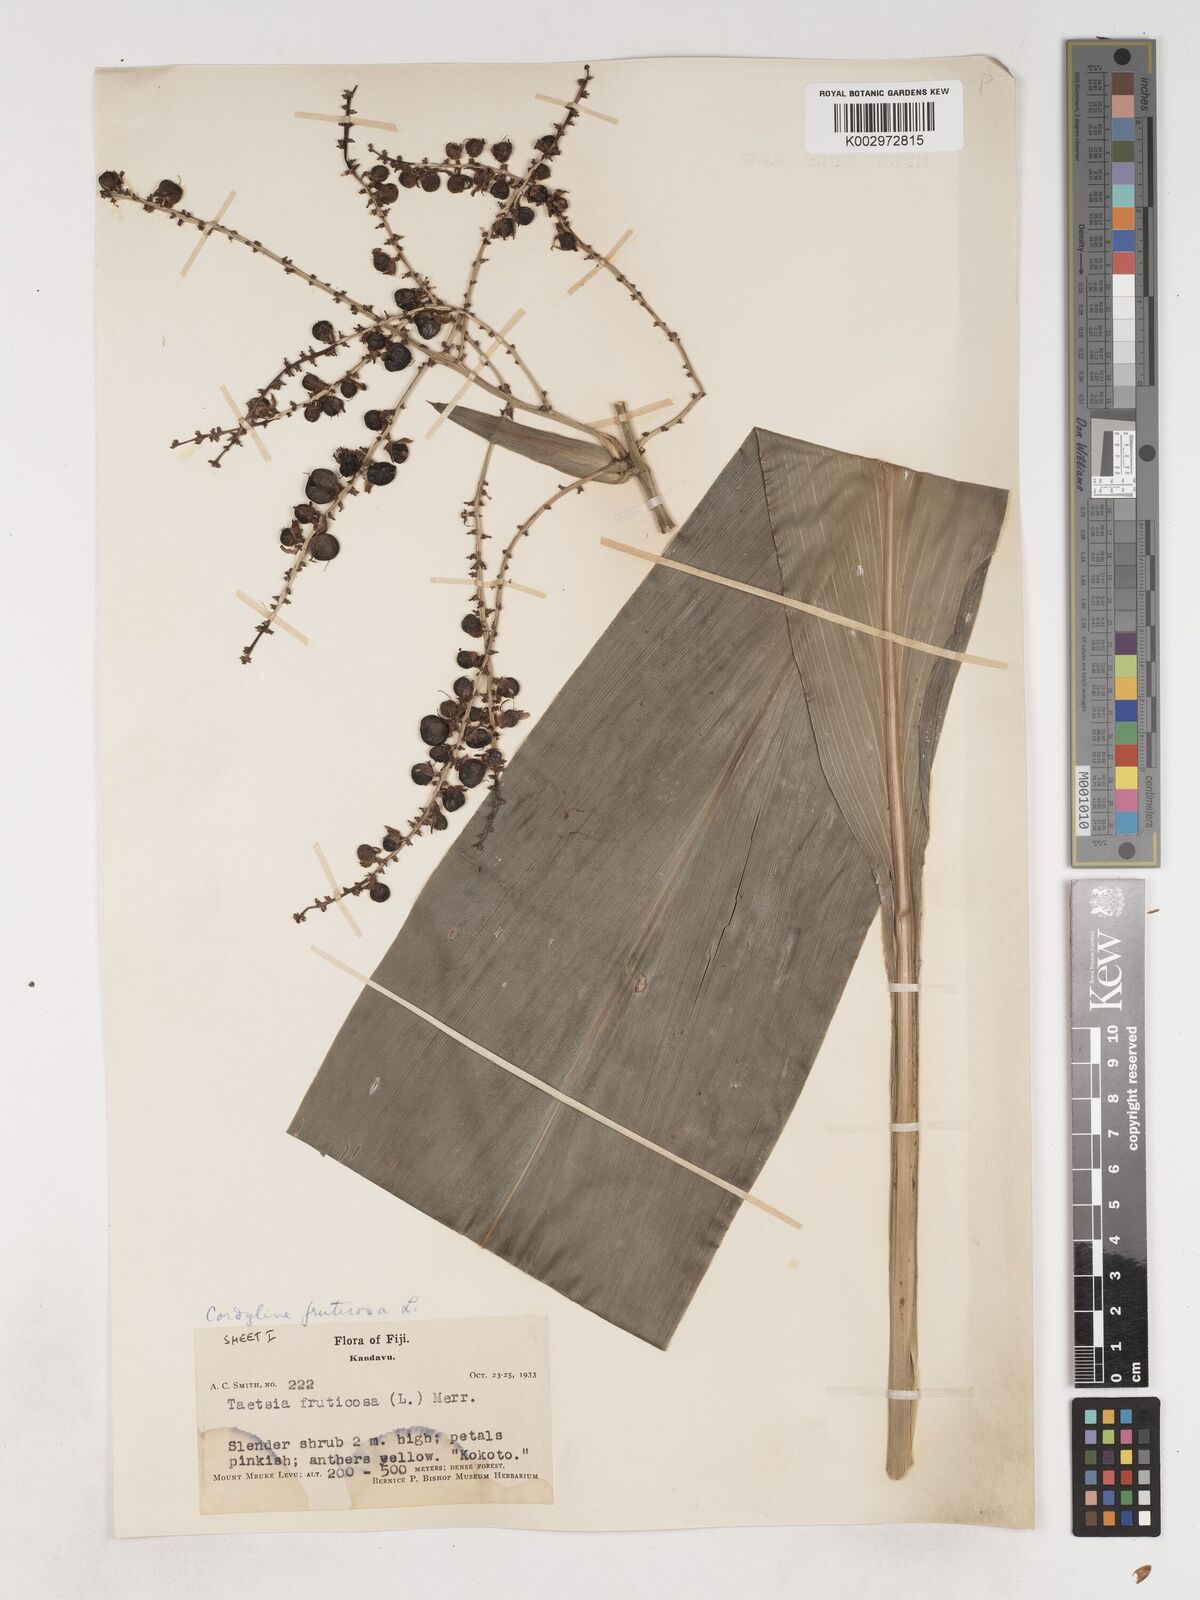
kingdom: Plantae
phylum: Tracheophyta
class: Liliopsida
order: Asparagales
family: Asparagaceae
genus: Cordyline
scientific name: Cordyline fruticosa
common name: Good-luck-plant
